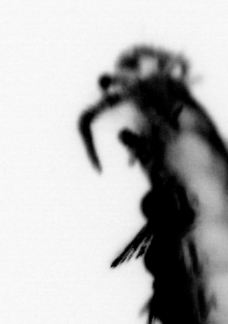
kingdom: Animalia
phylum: Annelida
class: Polychaeta
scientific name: Polychaeta
